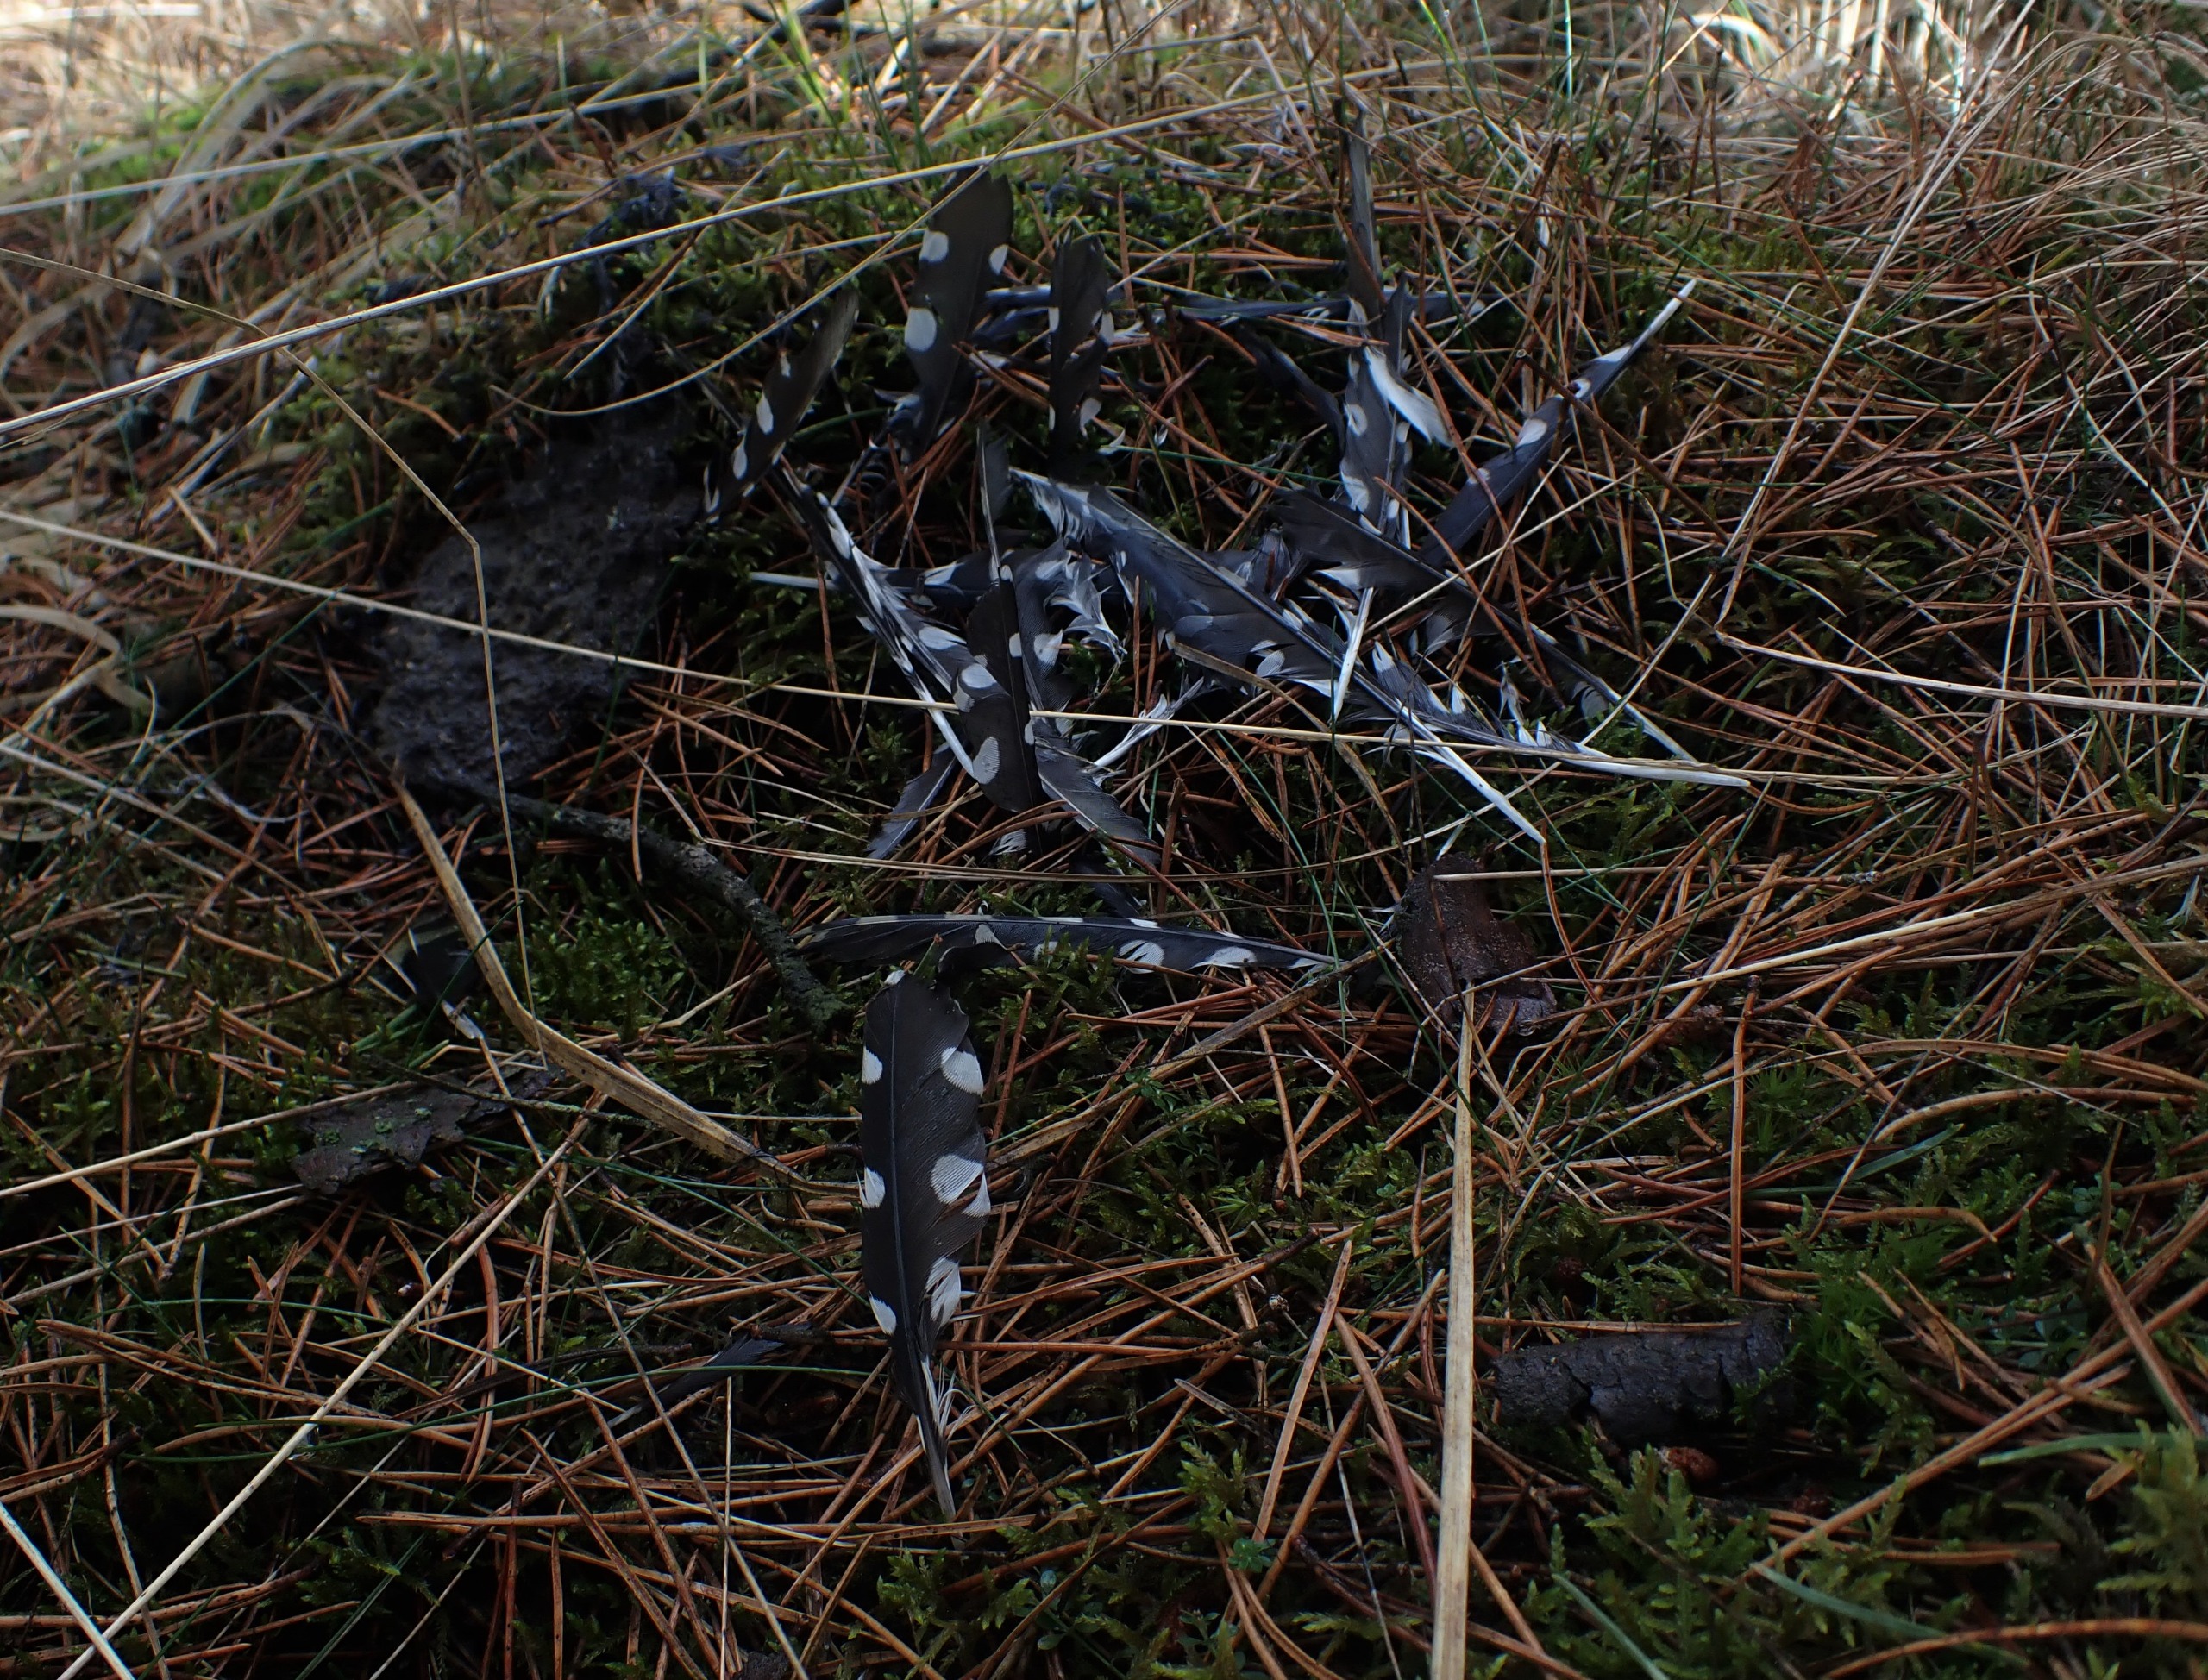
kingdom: Animalia
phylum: Chordata
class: Aves
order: Piciformes
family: Picidae
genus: Dendrocopos
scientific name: Dendrocopos major
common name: Stor flagspætte
